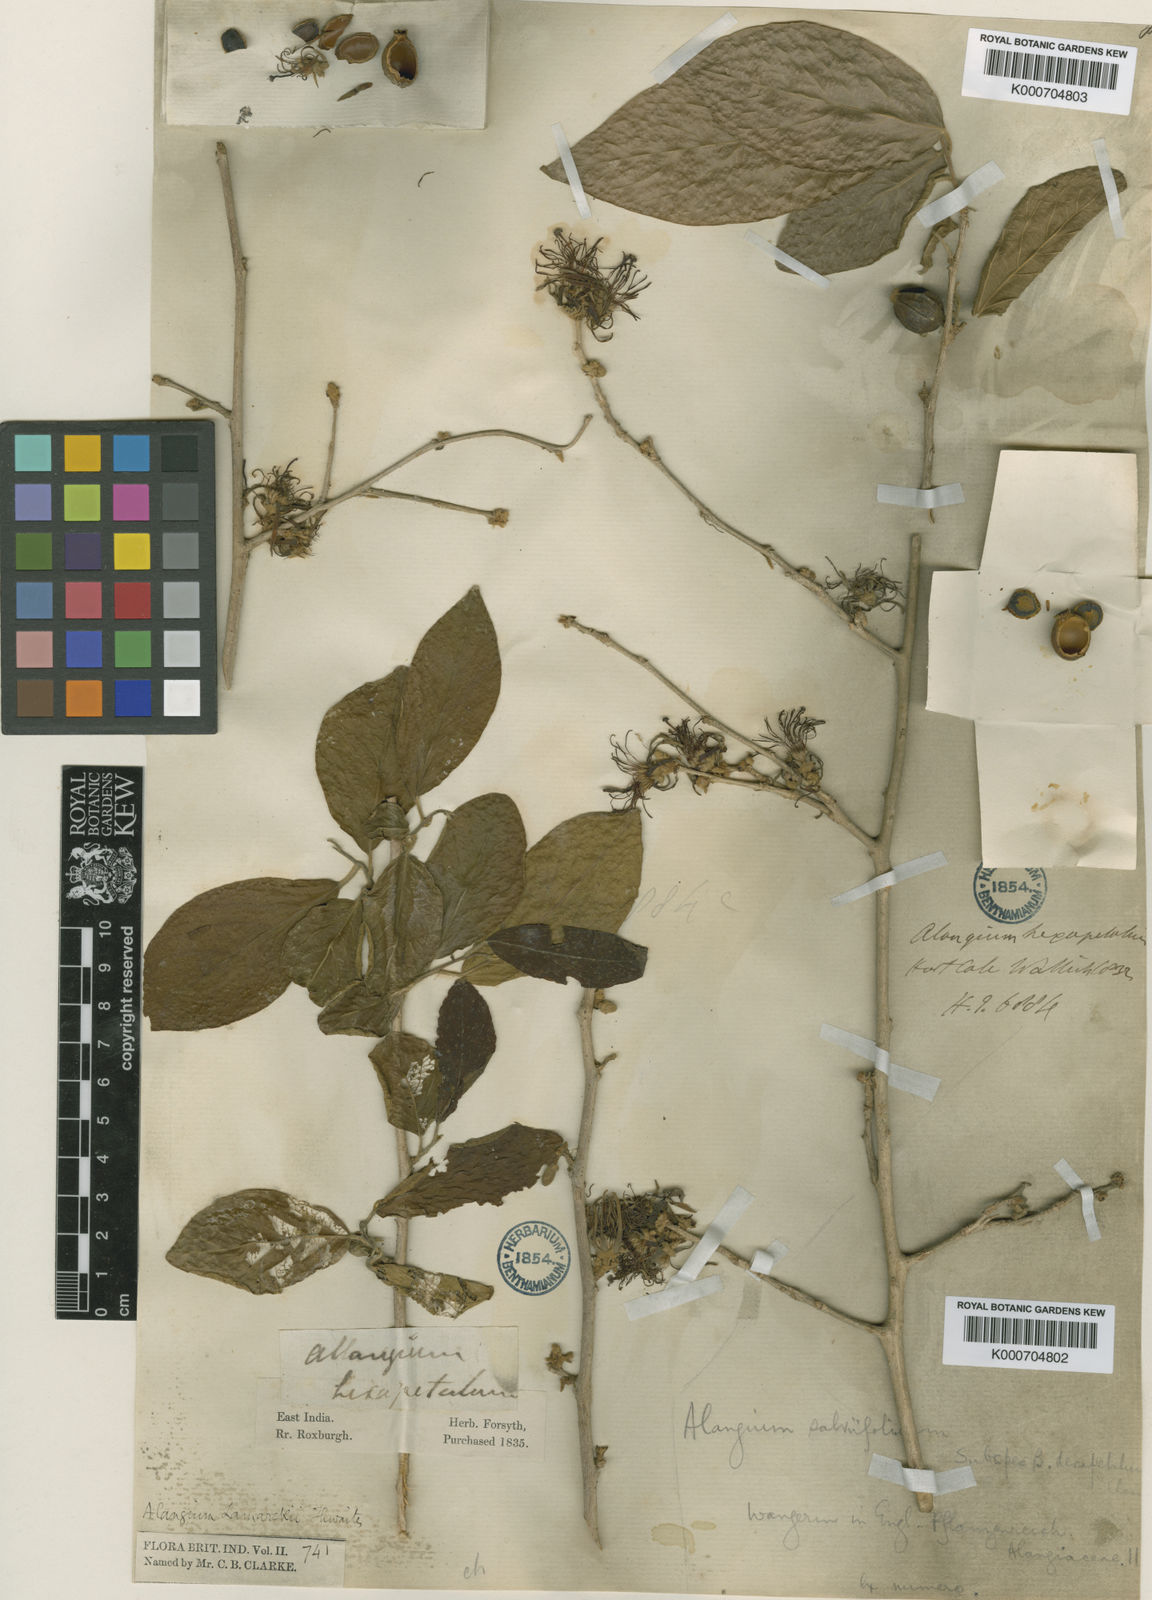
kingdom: Plantae
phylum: Tracheophyta
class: Magnoliopsida
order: Cornales
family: Cornaceae
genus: Alangium
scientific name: Alangium salviifolium
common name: Sage-leaf alangium
